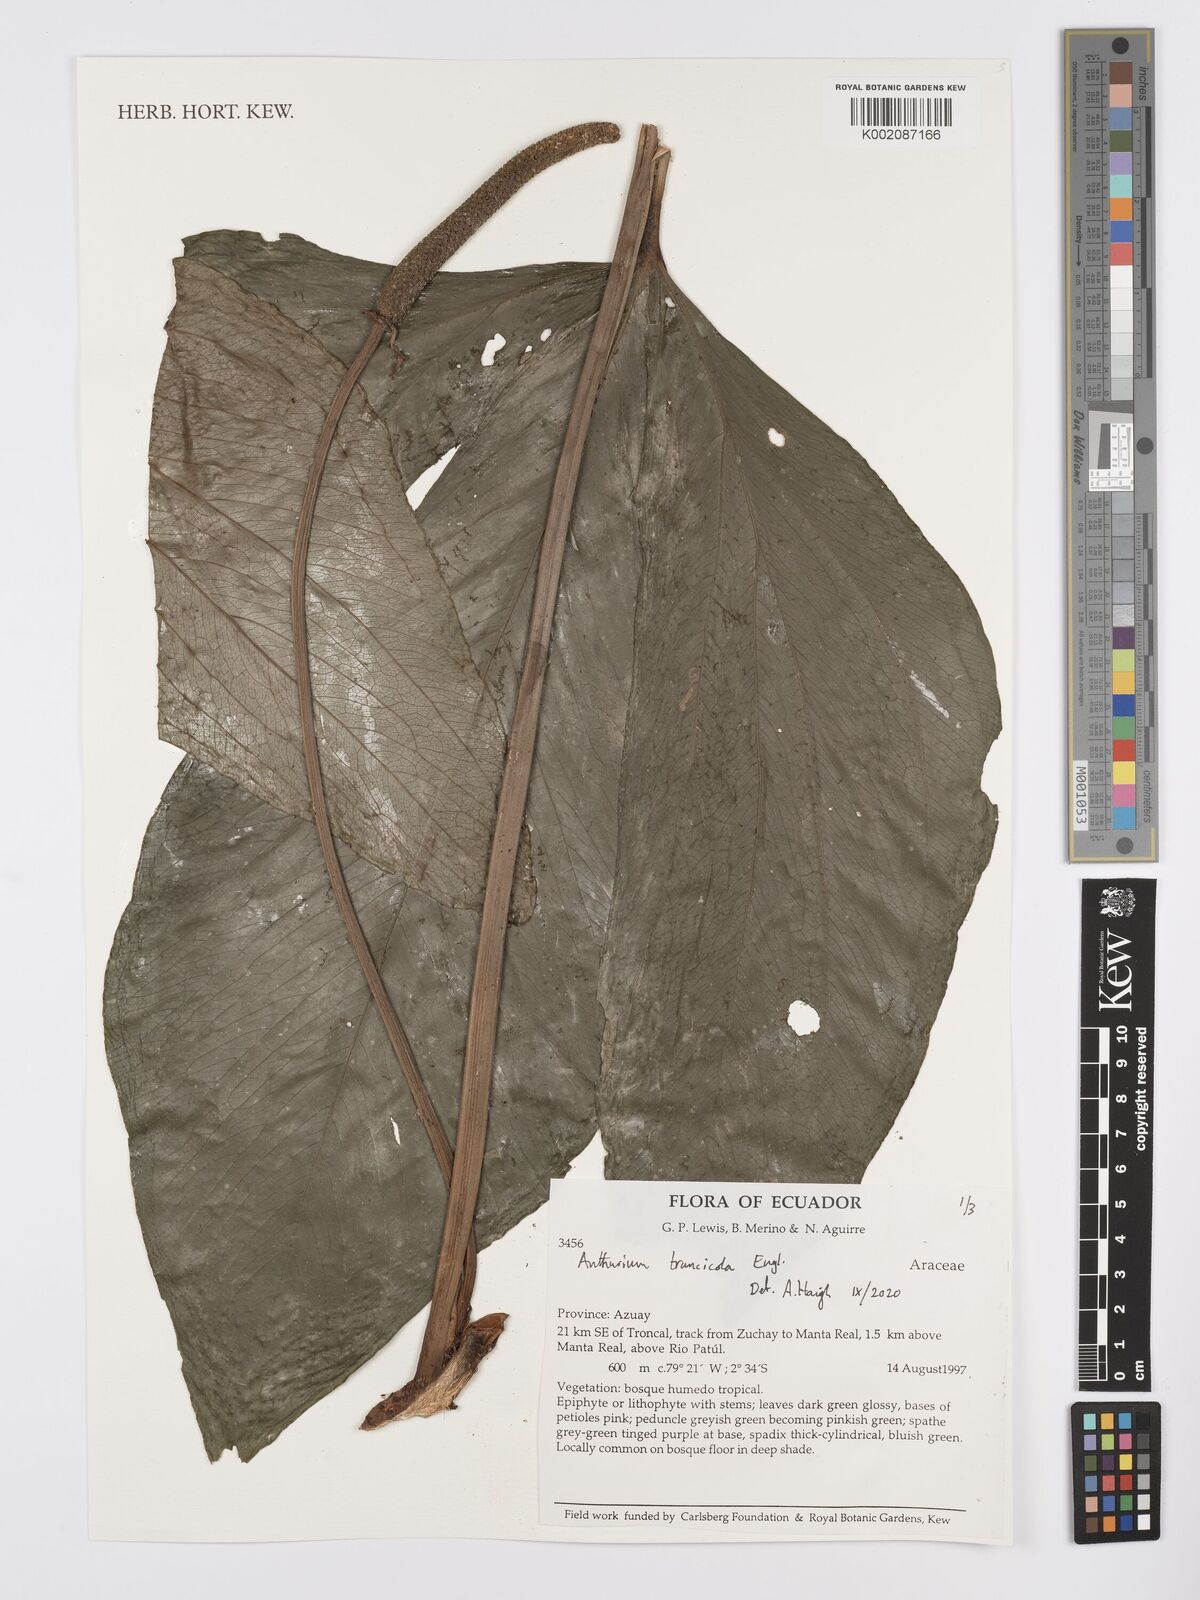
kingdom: Plantae
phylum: Tracheophyta
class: Liliopsida
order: Alismatales
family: Araceae
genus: Anthurium
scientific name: Anthurium truncicola
